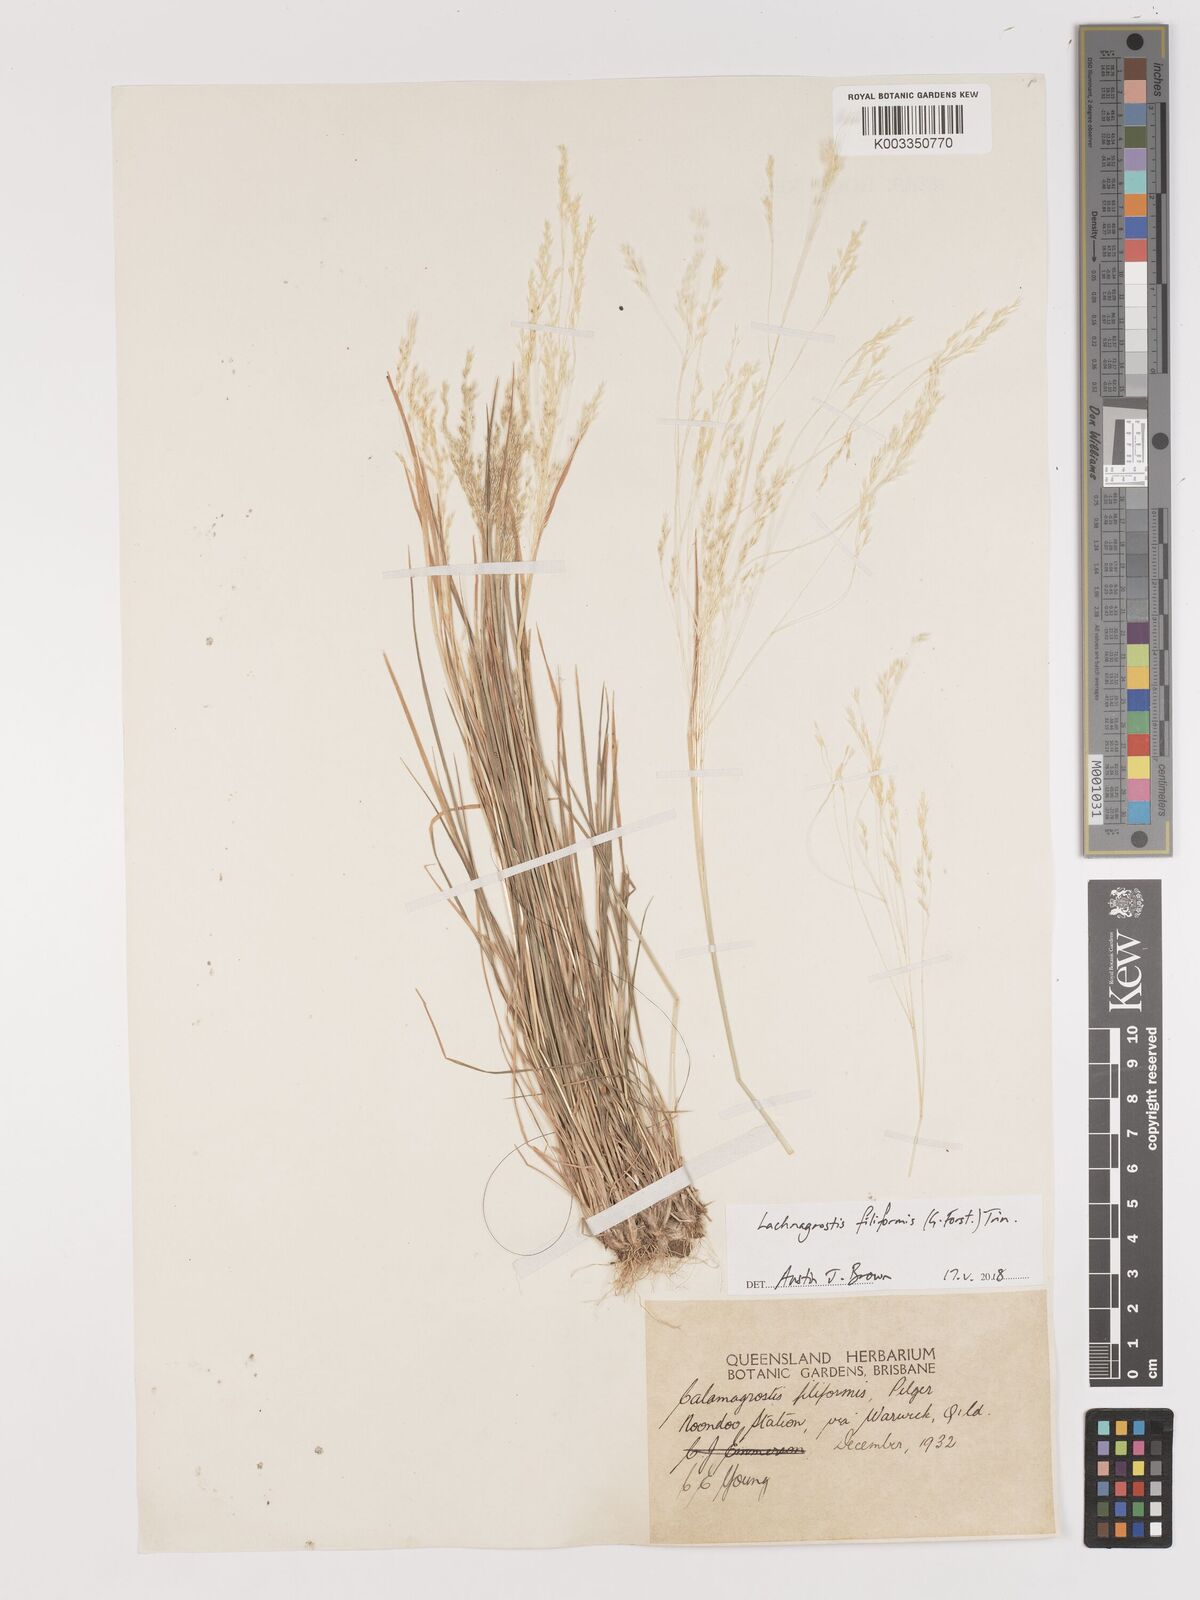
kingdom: Plantae
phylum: Tracheophyta
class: Liliopsida
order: Poales
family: Poaceae
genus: Lachnagrostis
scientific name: Lachnagrostis filiformis
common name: Bentgrass
